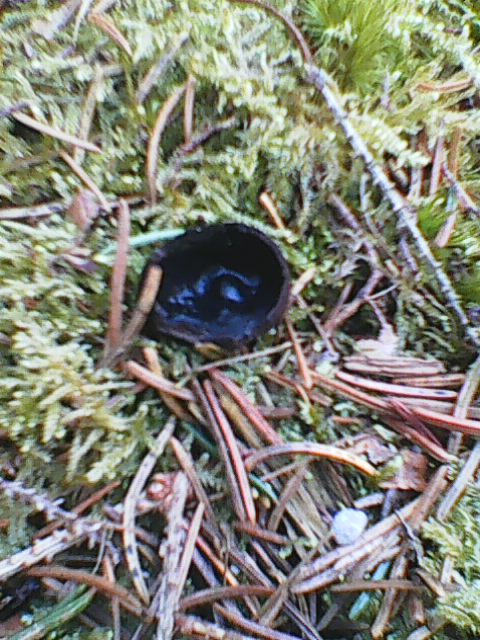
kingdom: Fungi
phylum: Ascomycota
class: Pezizomycetes
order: Pezizales
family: Sarcosomataceae
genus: Pseudoplectania
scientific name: Pseudoplectania nigrella
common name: almindelig sortbæger
